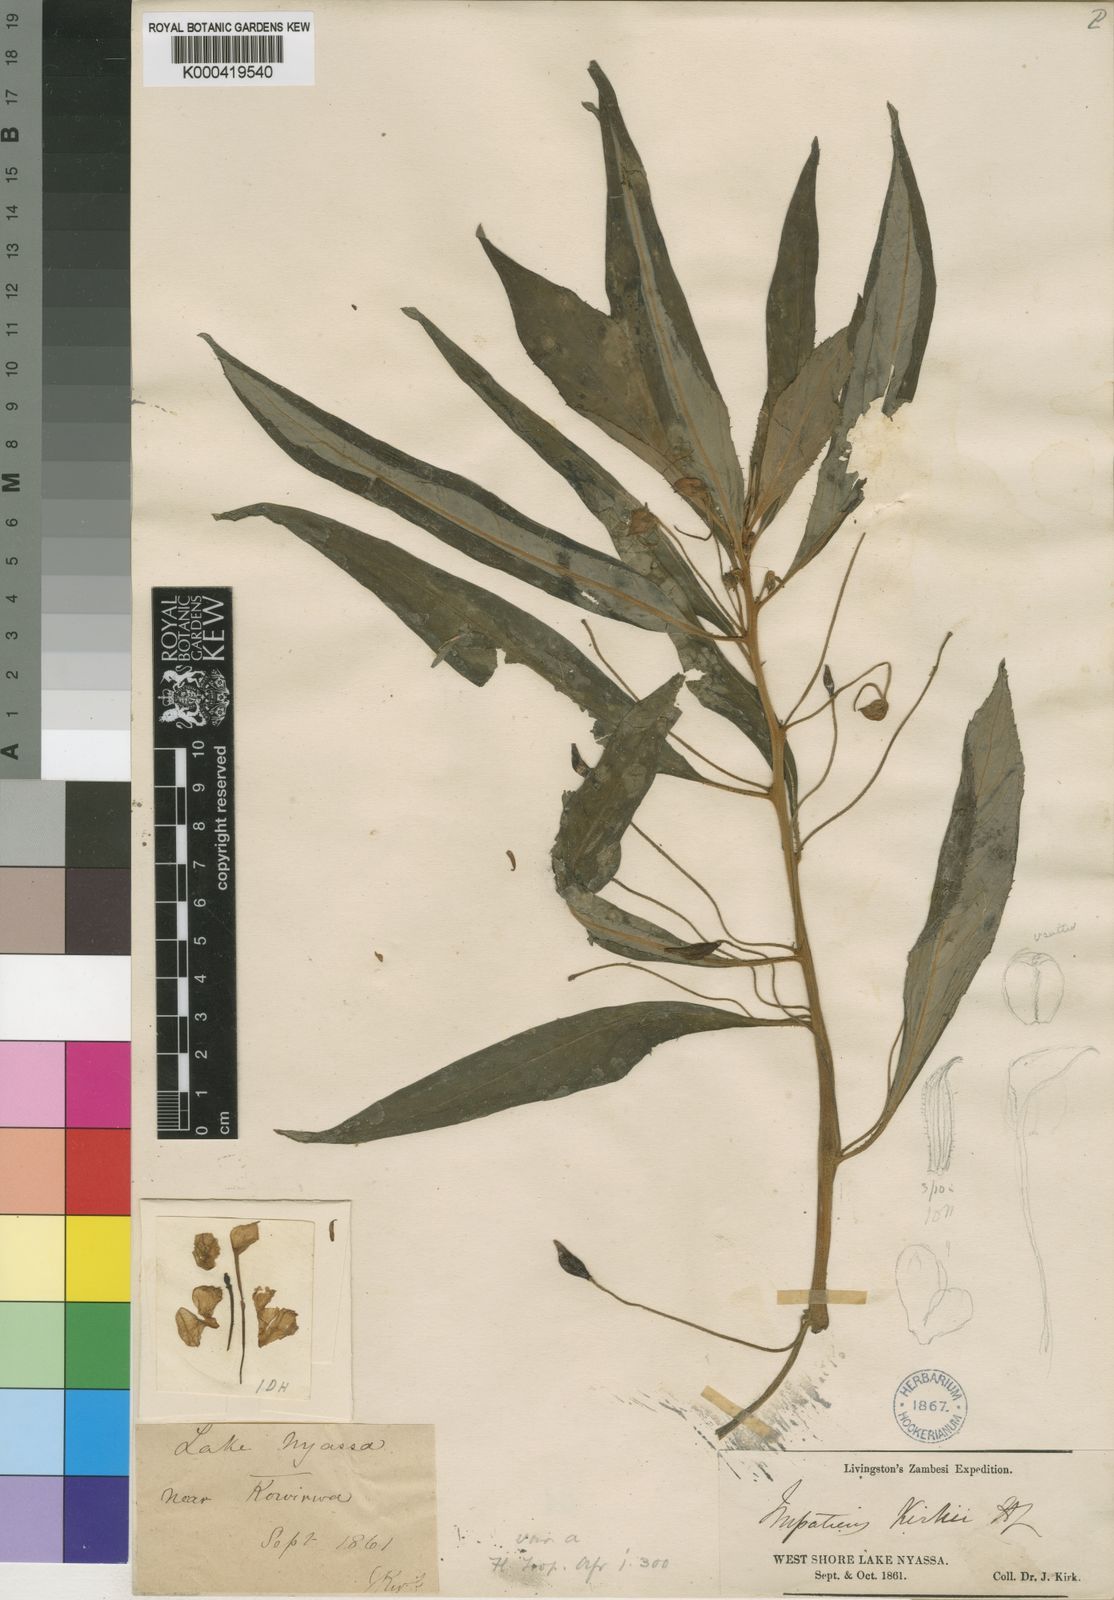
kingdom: Plantae
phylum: Tracheophyta
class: Magnoliopsida
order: Ericales
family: Balsaminaceae
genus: Impatiens
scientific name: Impatiens irvingii
